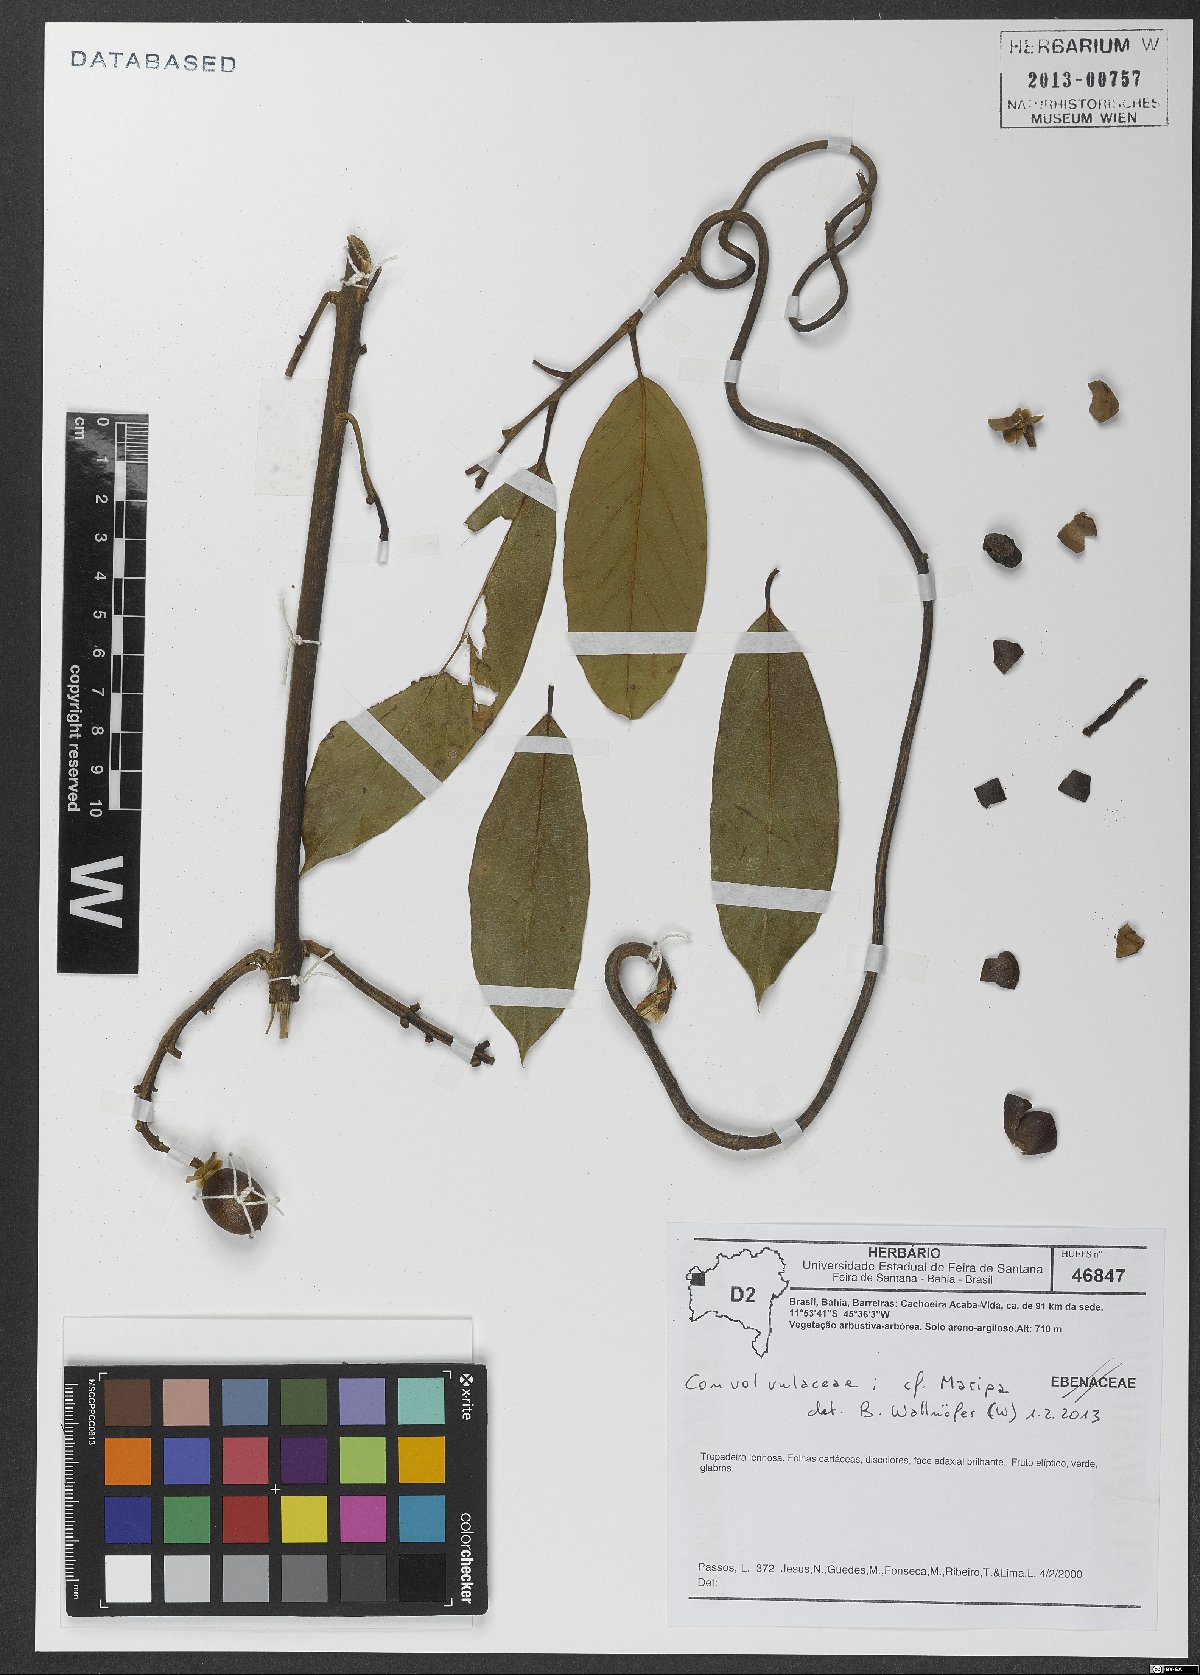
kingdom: Plantae
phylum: Tracheophyta
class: Magnoliopsida
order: Solanales
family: Convolvulaceae
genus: Maripa
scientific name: Maripa
